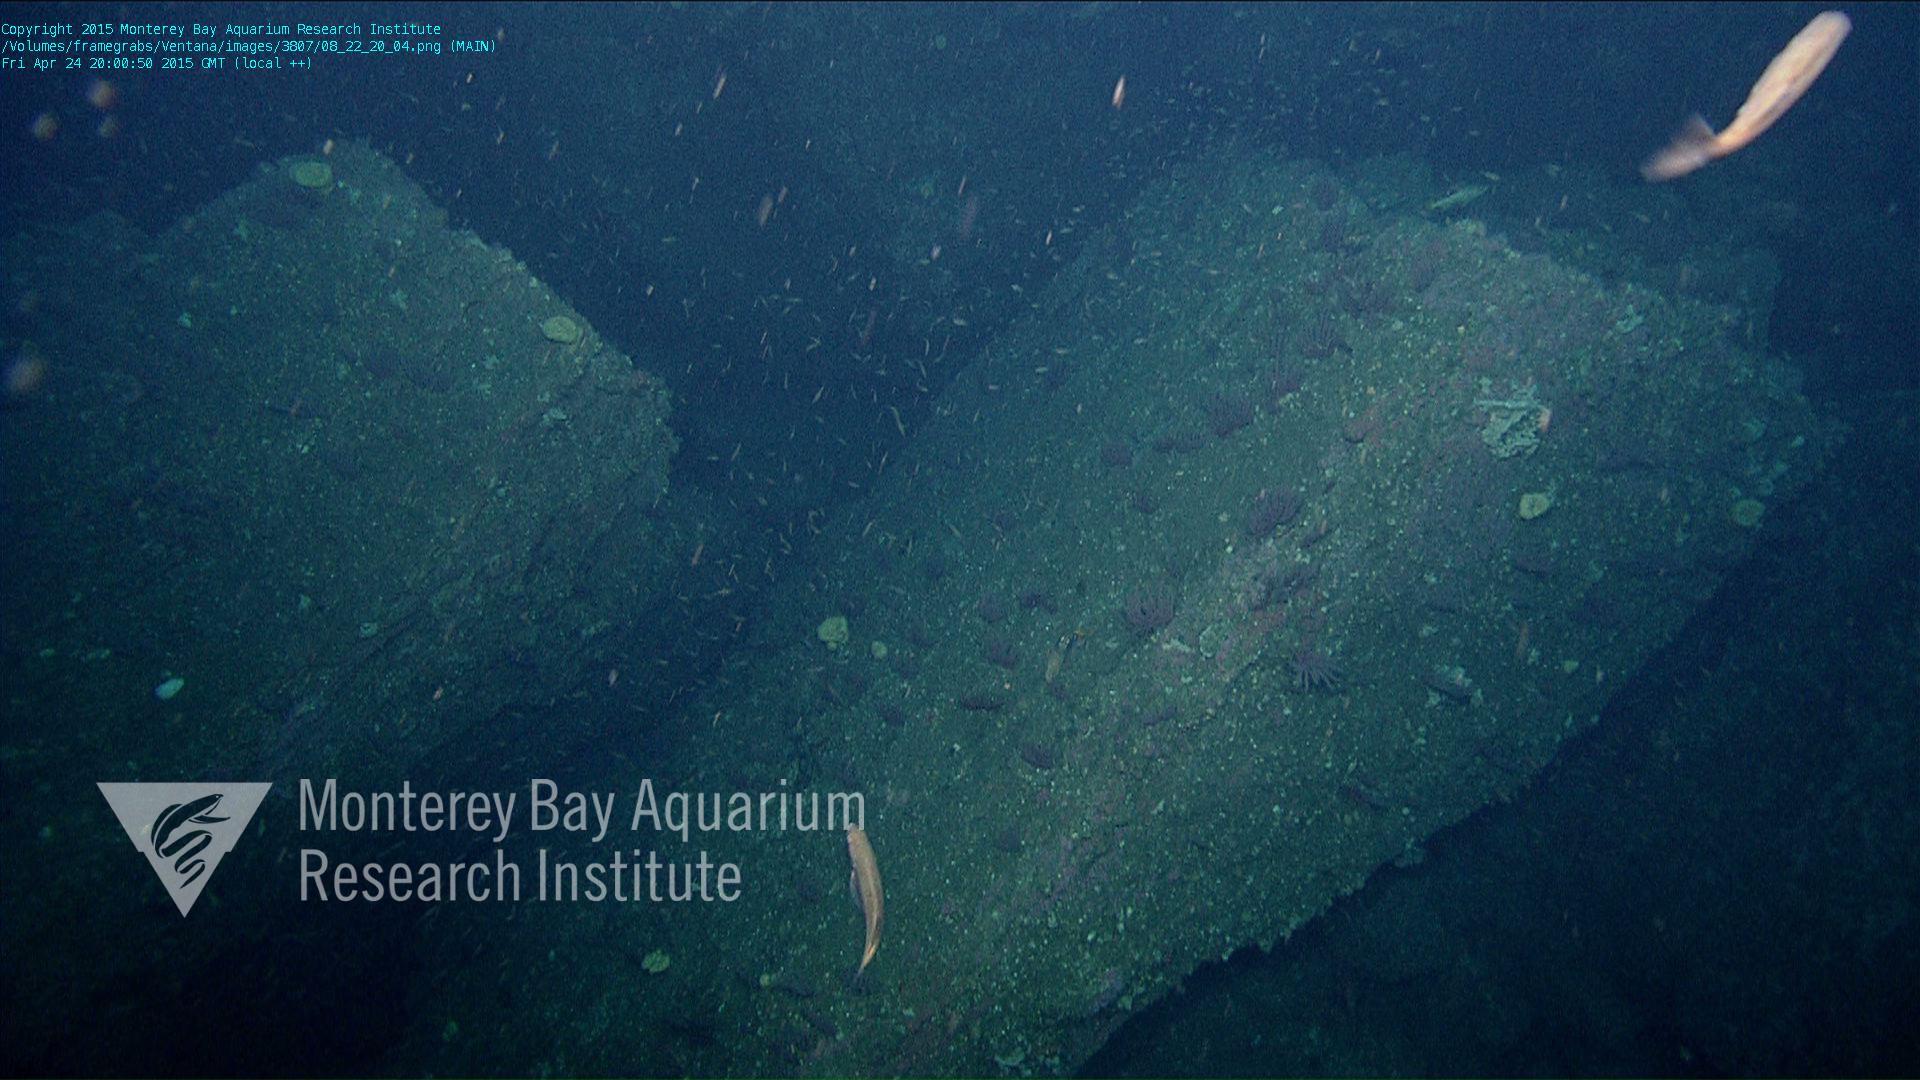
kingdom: Animalia
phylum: Cnidaria
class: Anthozoa
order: Malacalcyonacea
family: Gorgoniidae
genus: Leptogorgia
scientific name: Leptogorgia chilensis
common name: Carmine sea spray
